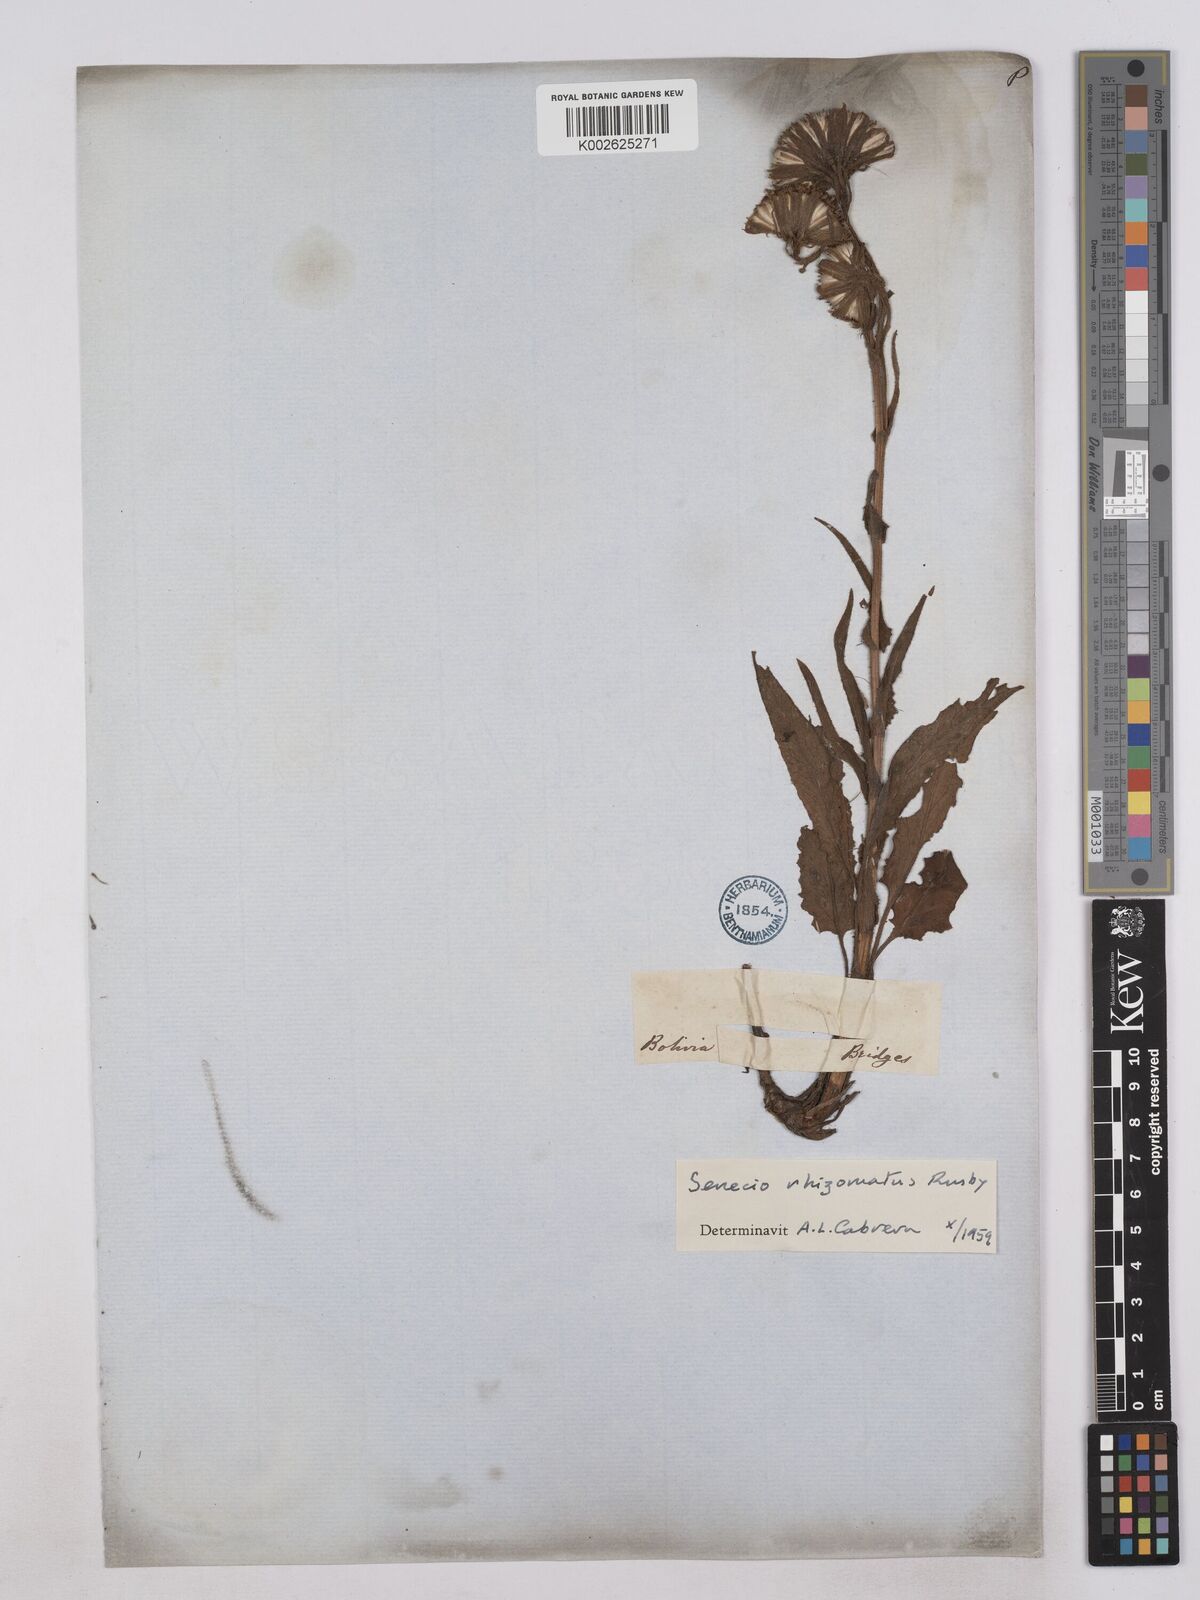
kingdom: Plantae
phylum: Tracheophyta
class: Magnoliopsida
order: Asterales
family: Asteraceae
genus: Senecio
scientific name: Senecio rhizomatus
